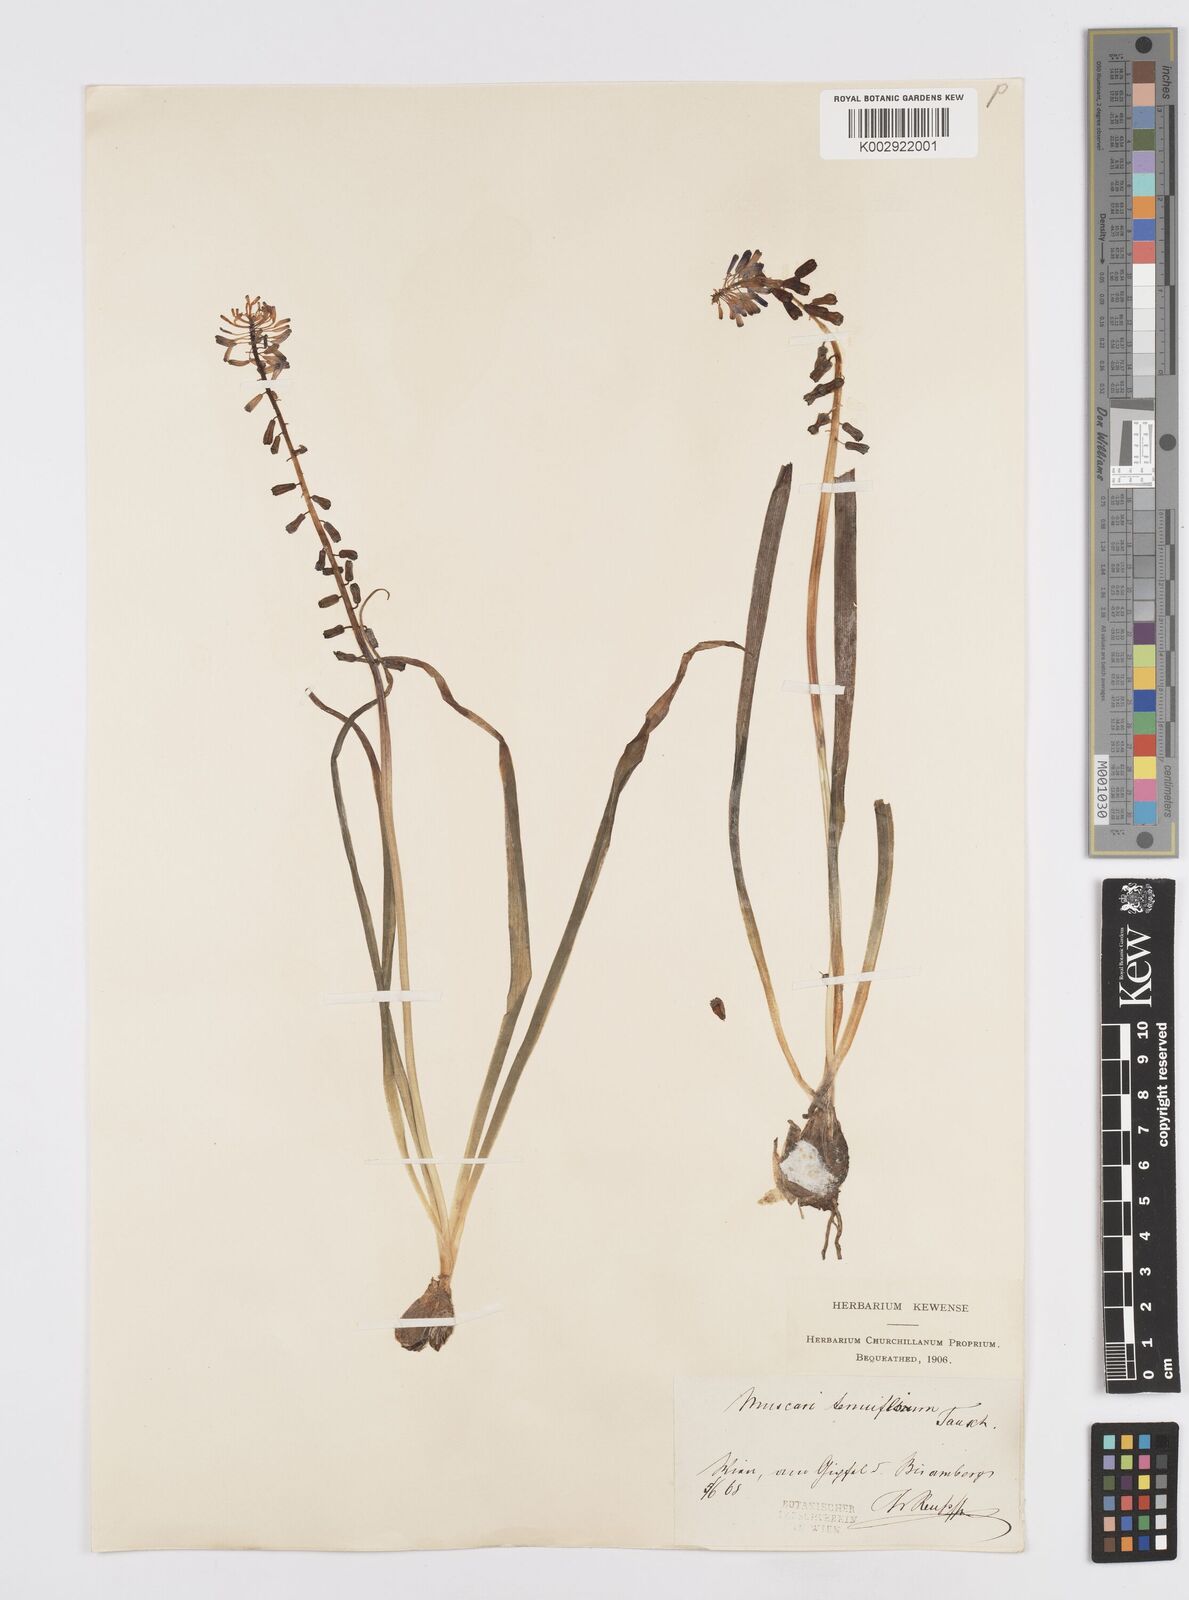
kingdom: Plantae
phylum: Tracheophyta
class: Liliopsida
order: Asparagales
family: Asparagaceae
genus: Muscari
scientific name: Muscari tenuiflorum
